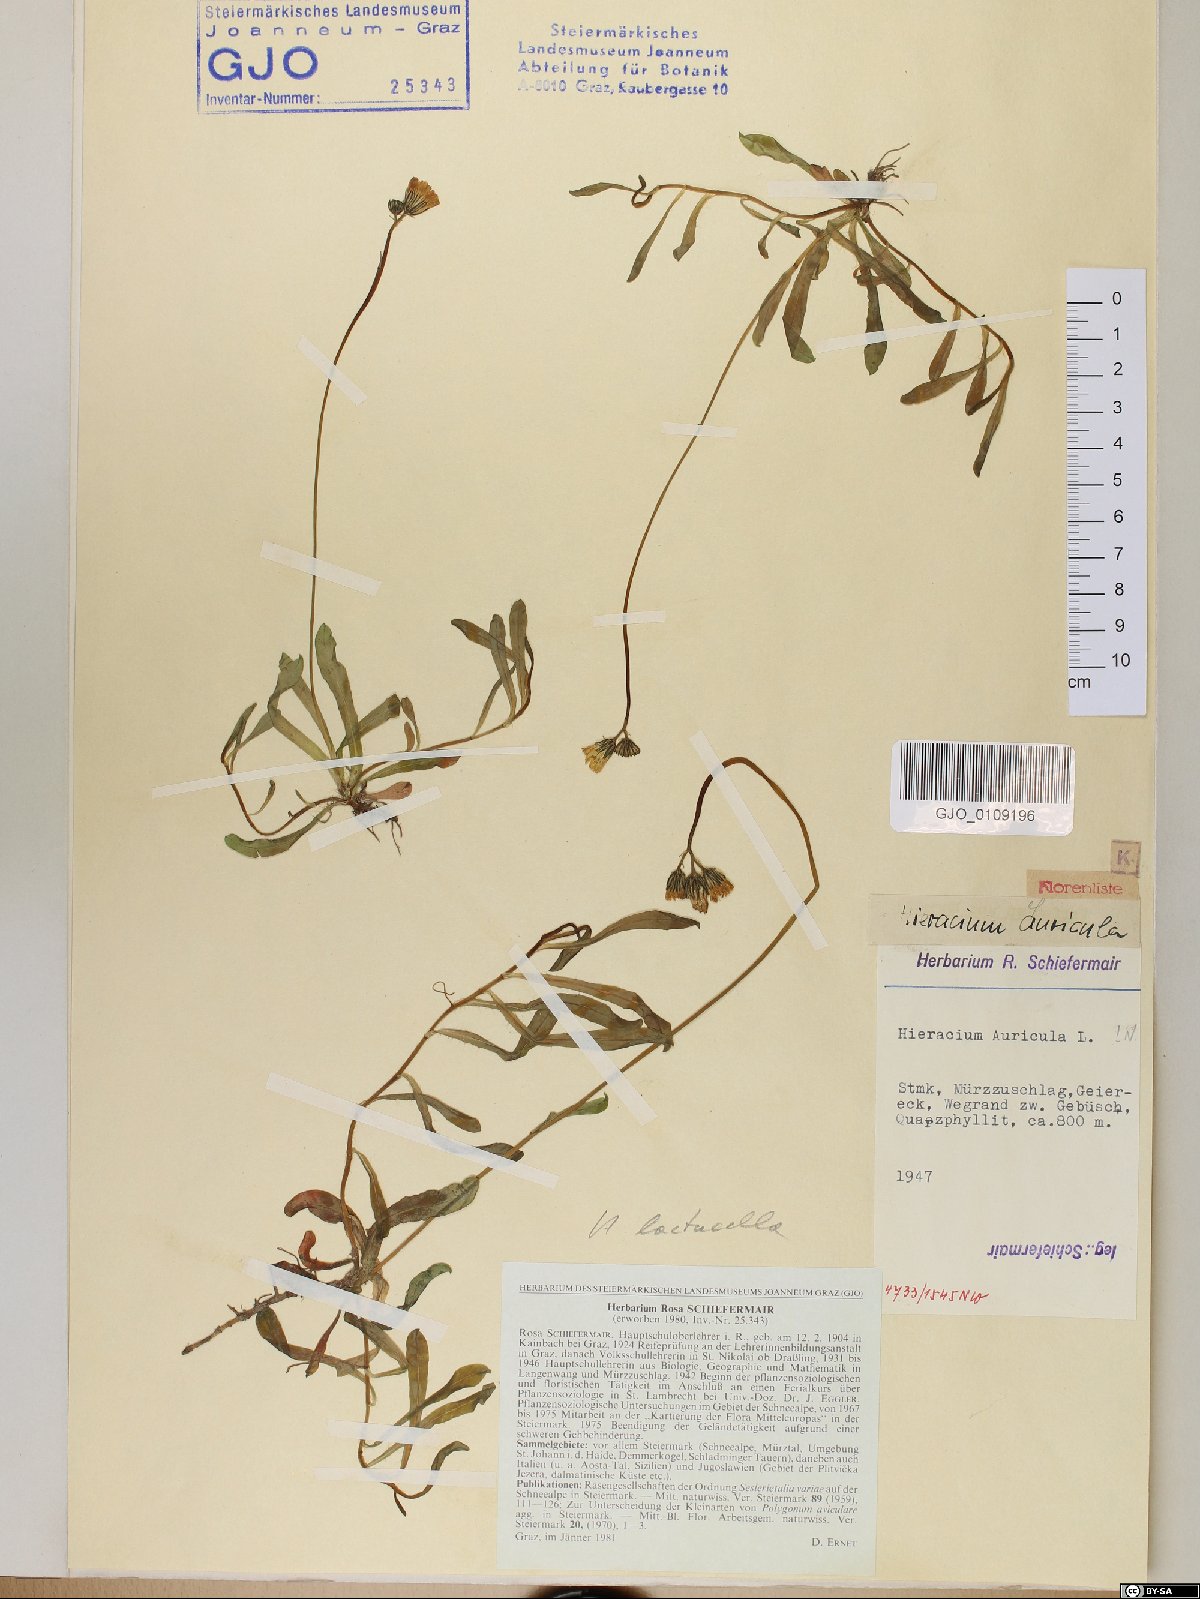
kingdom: Plantae
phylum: Tracheophyta
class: Magnoliopsida
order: Asterales
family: Asteraceae
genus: Pilosella
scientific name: Pilosella floribunda
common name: Glaucous hawkweed
